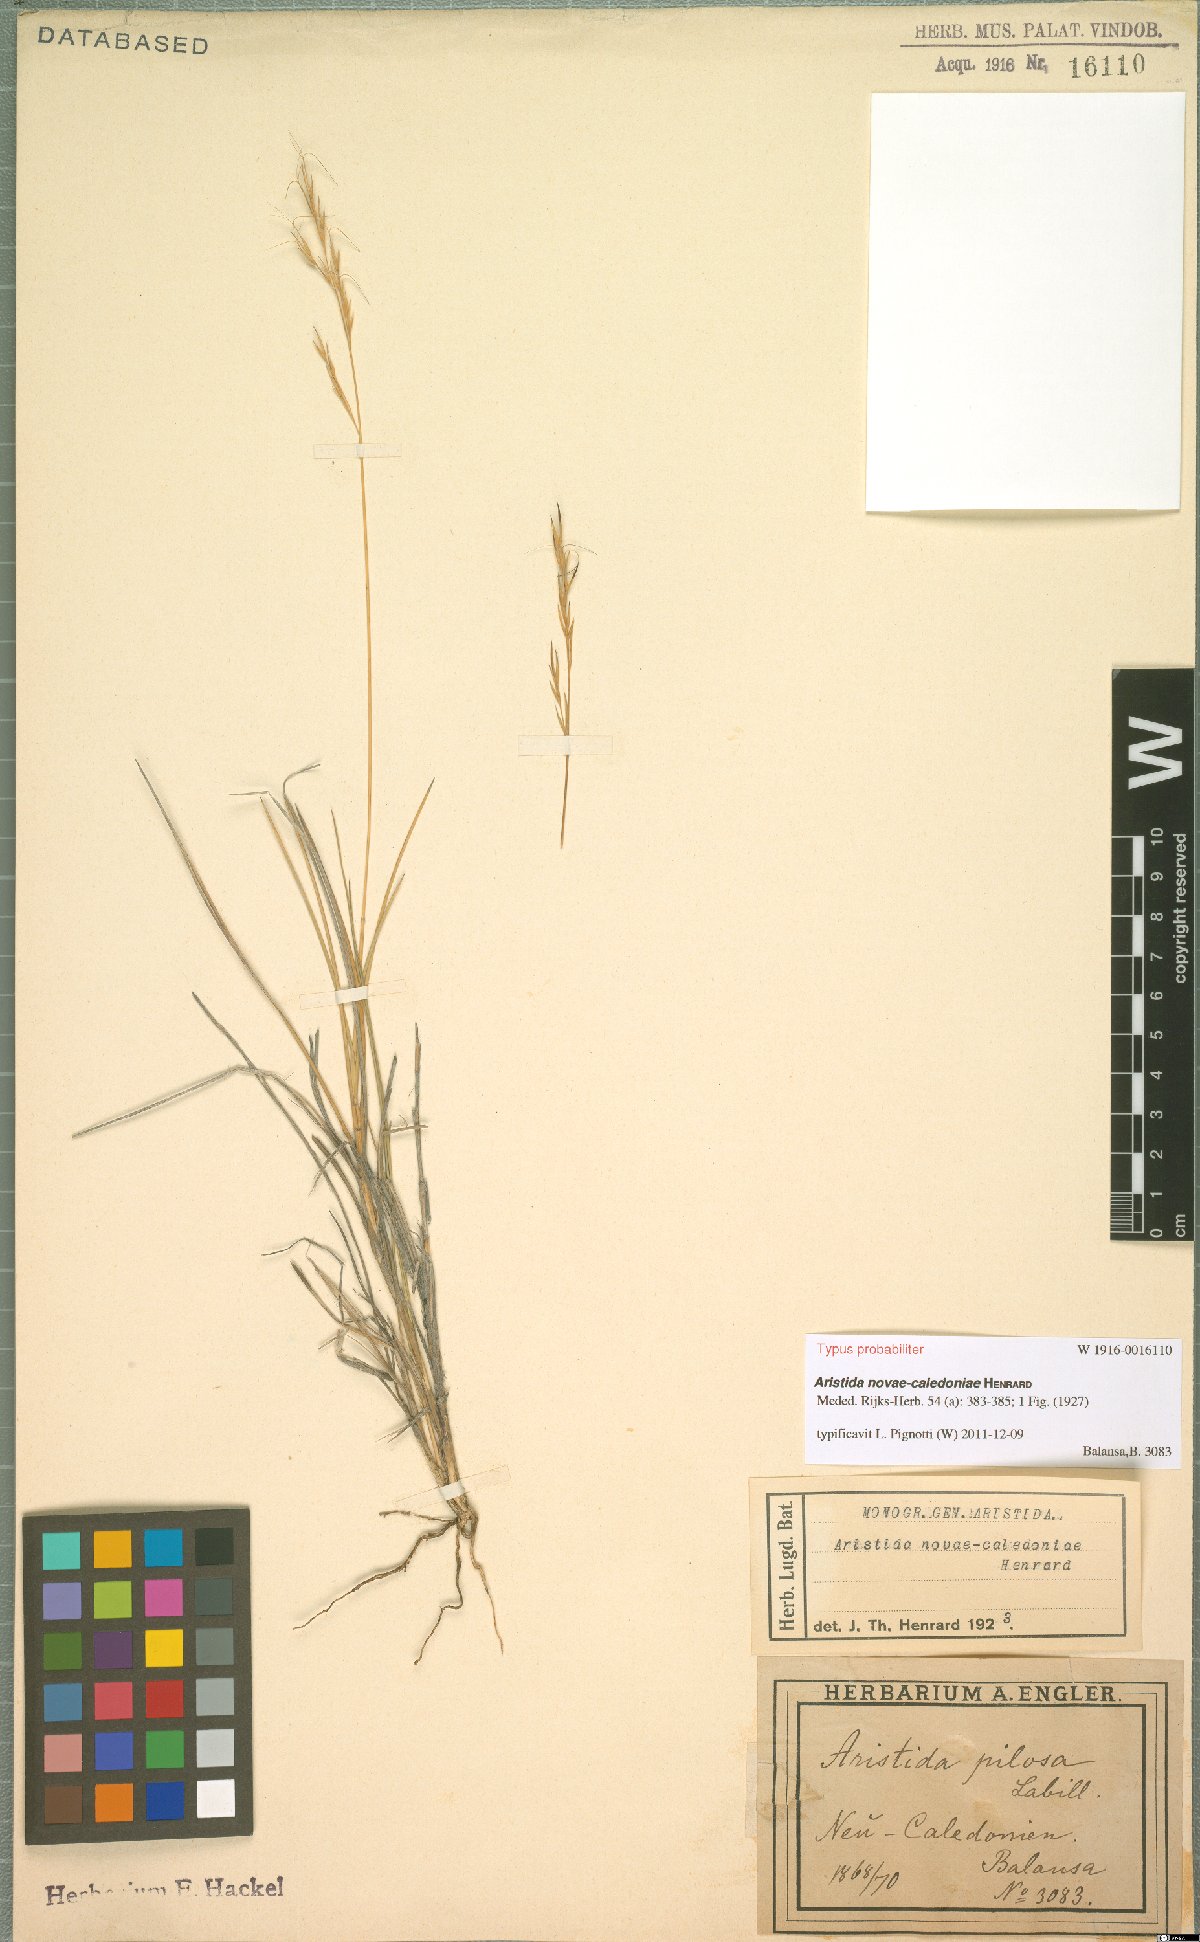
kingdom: Plantae
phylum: Tracheophyta
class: Liliopsida
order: Poales
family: Poaceae
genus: Aristida
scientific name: Aristida novae-caledoniae
